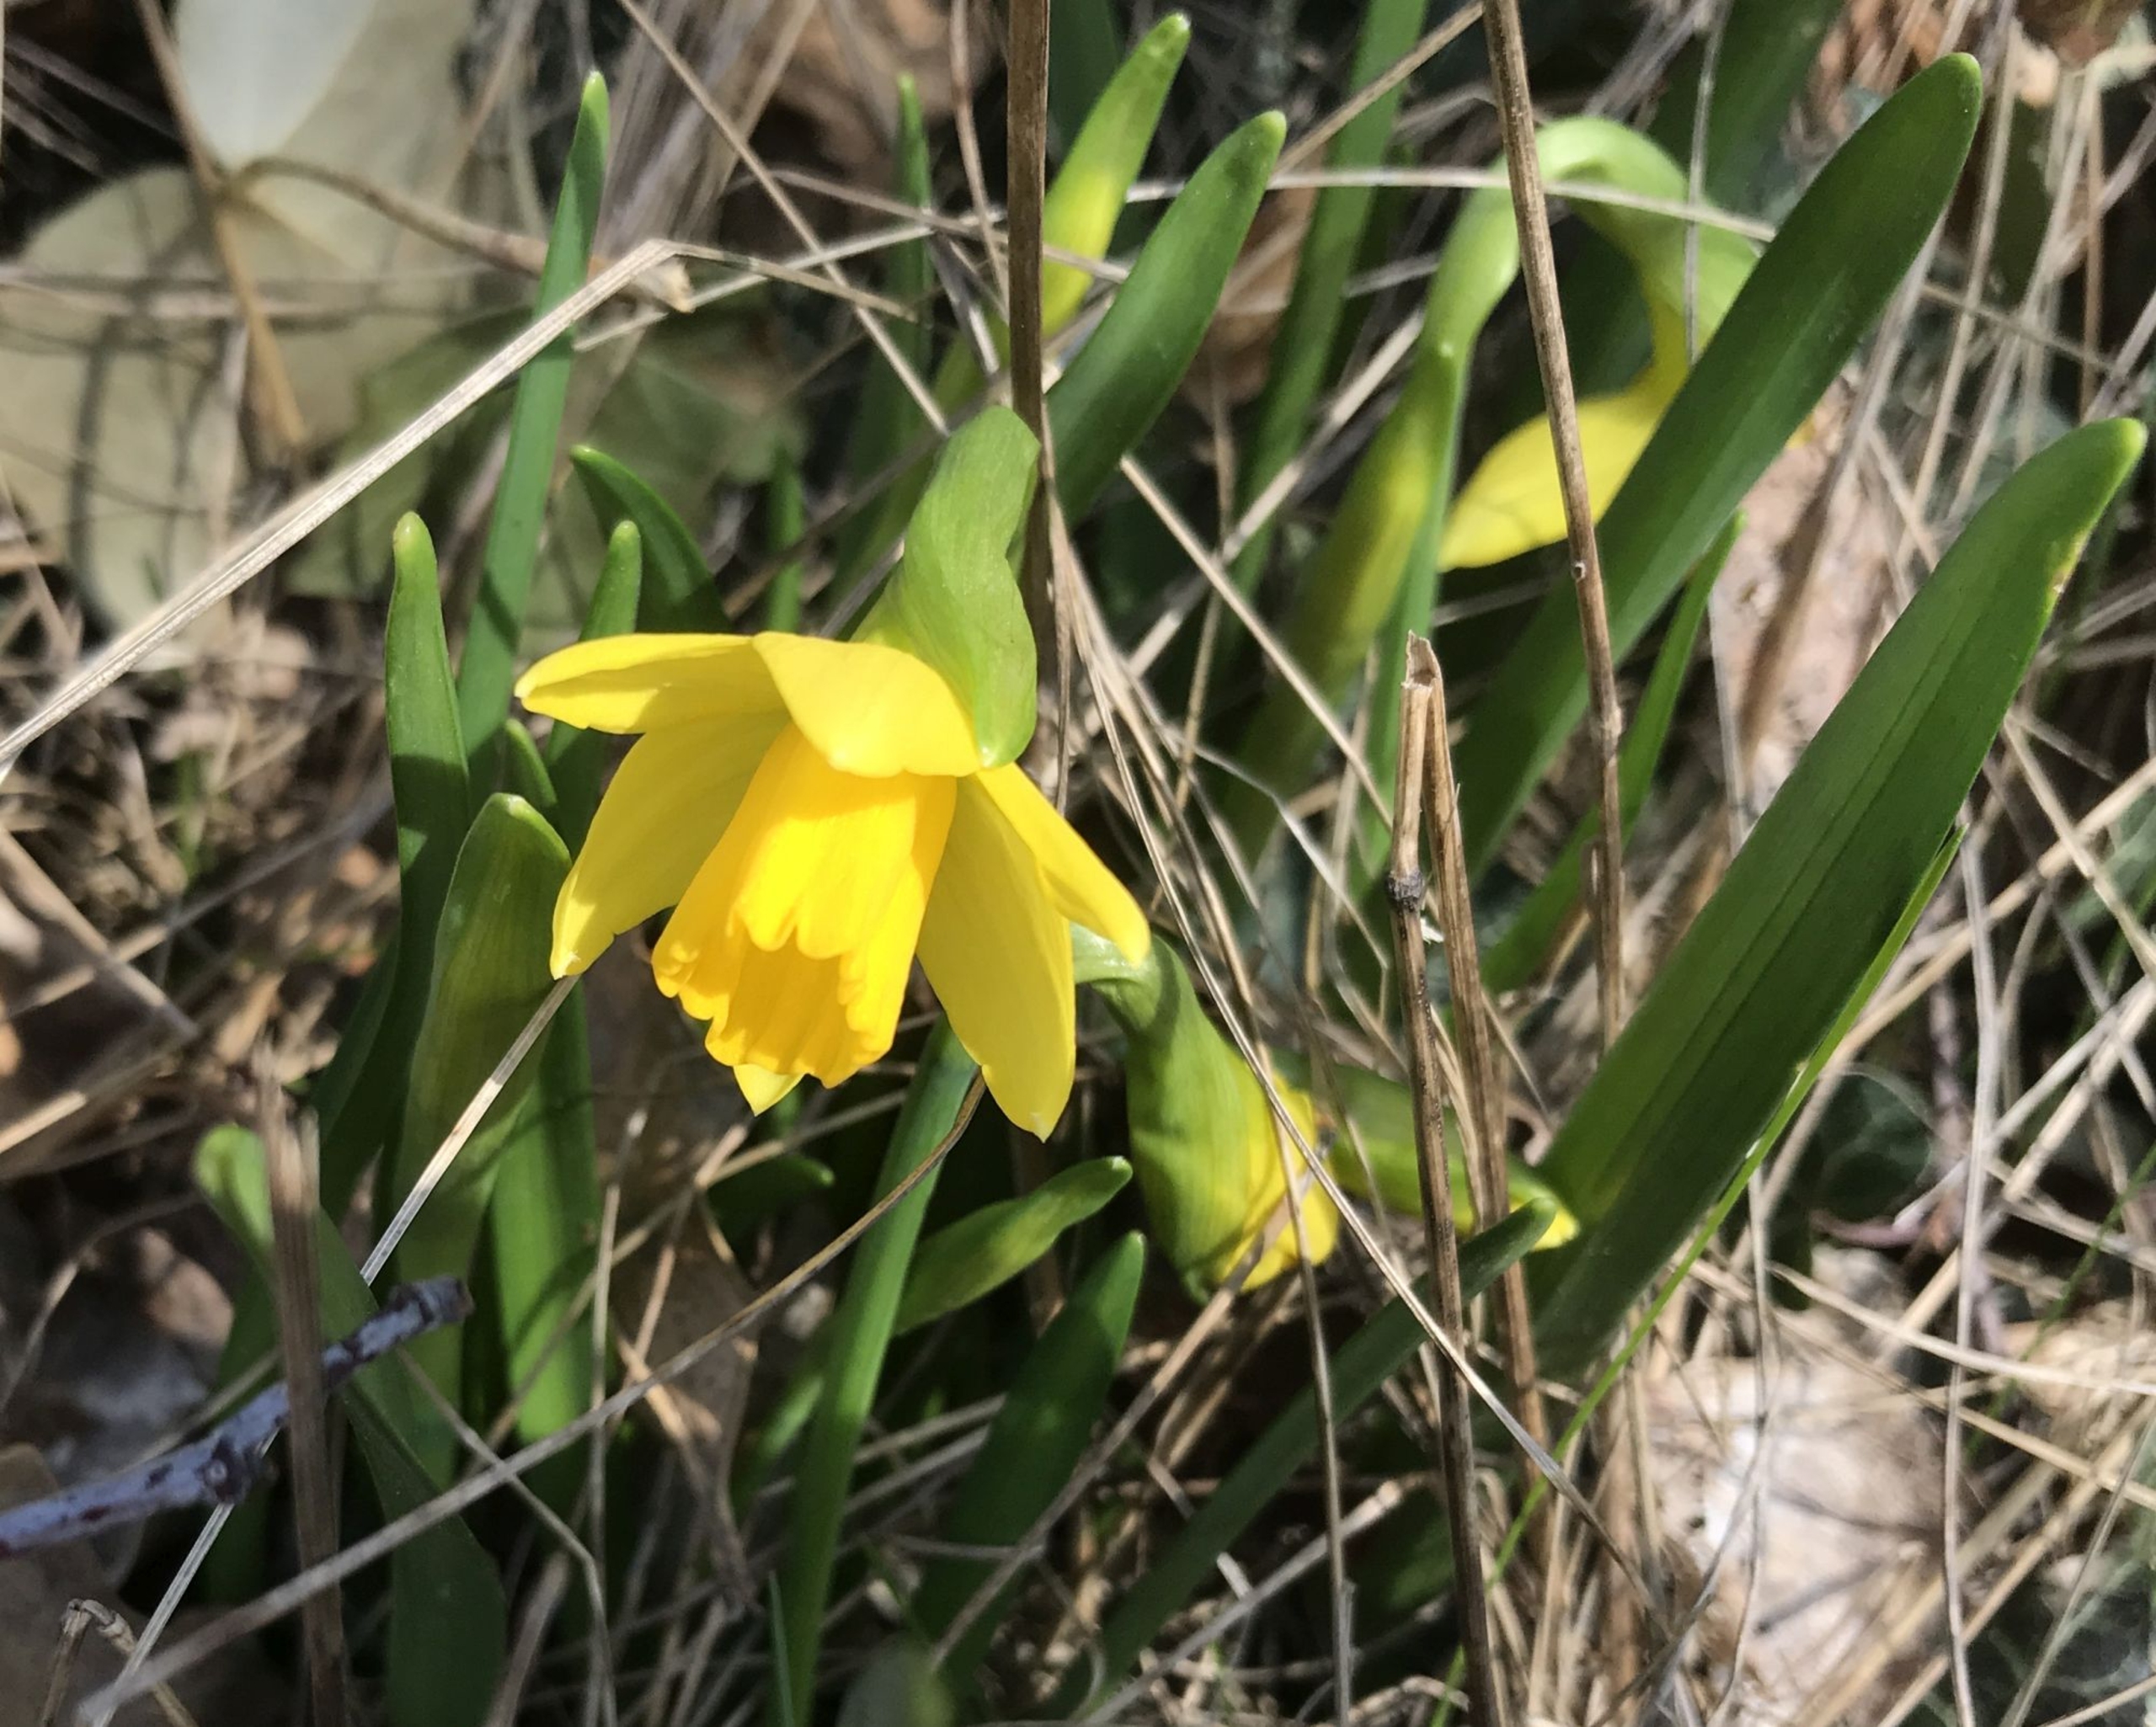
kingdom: Plantae
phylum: Tracheophyta
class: Liliopsida
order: Asparagales
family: Amaryllidaceae
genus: Narcissus
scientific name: Narcissus cyclazetta
